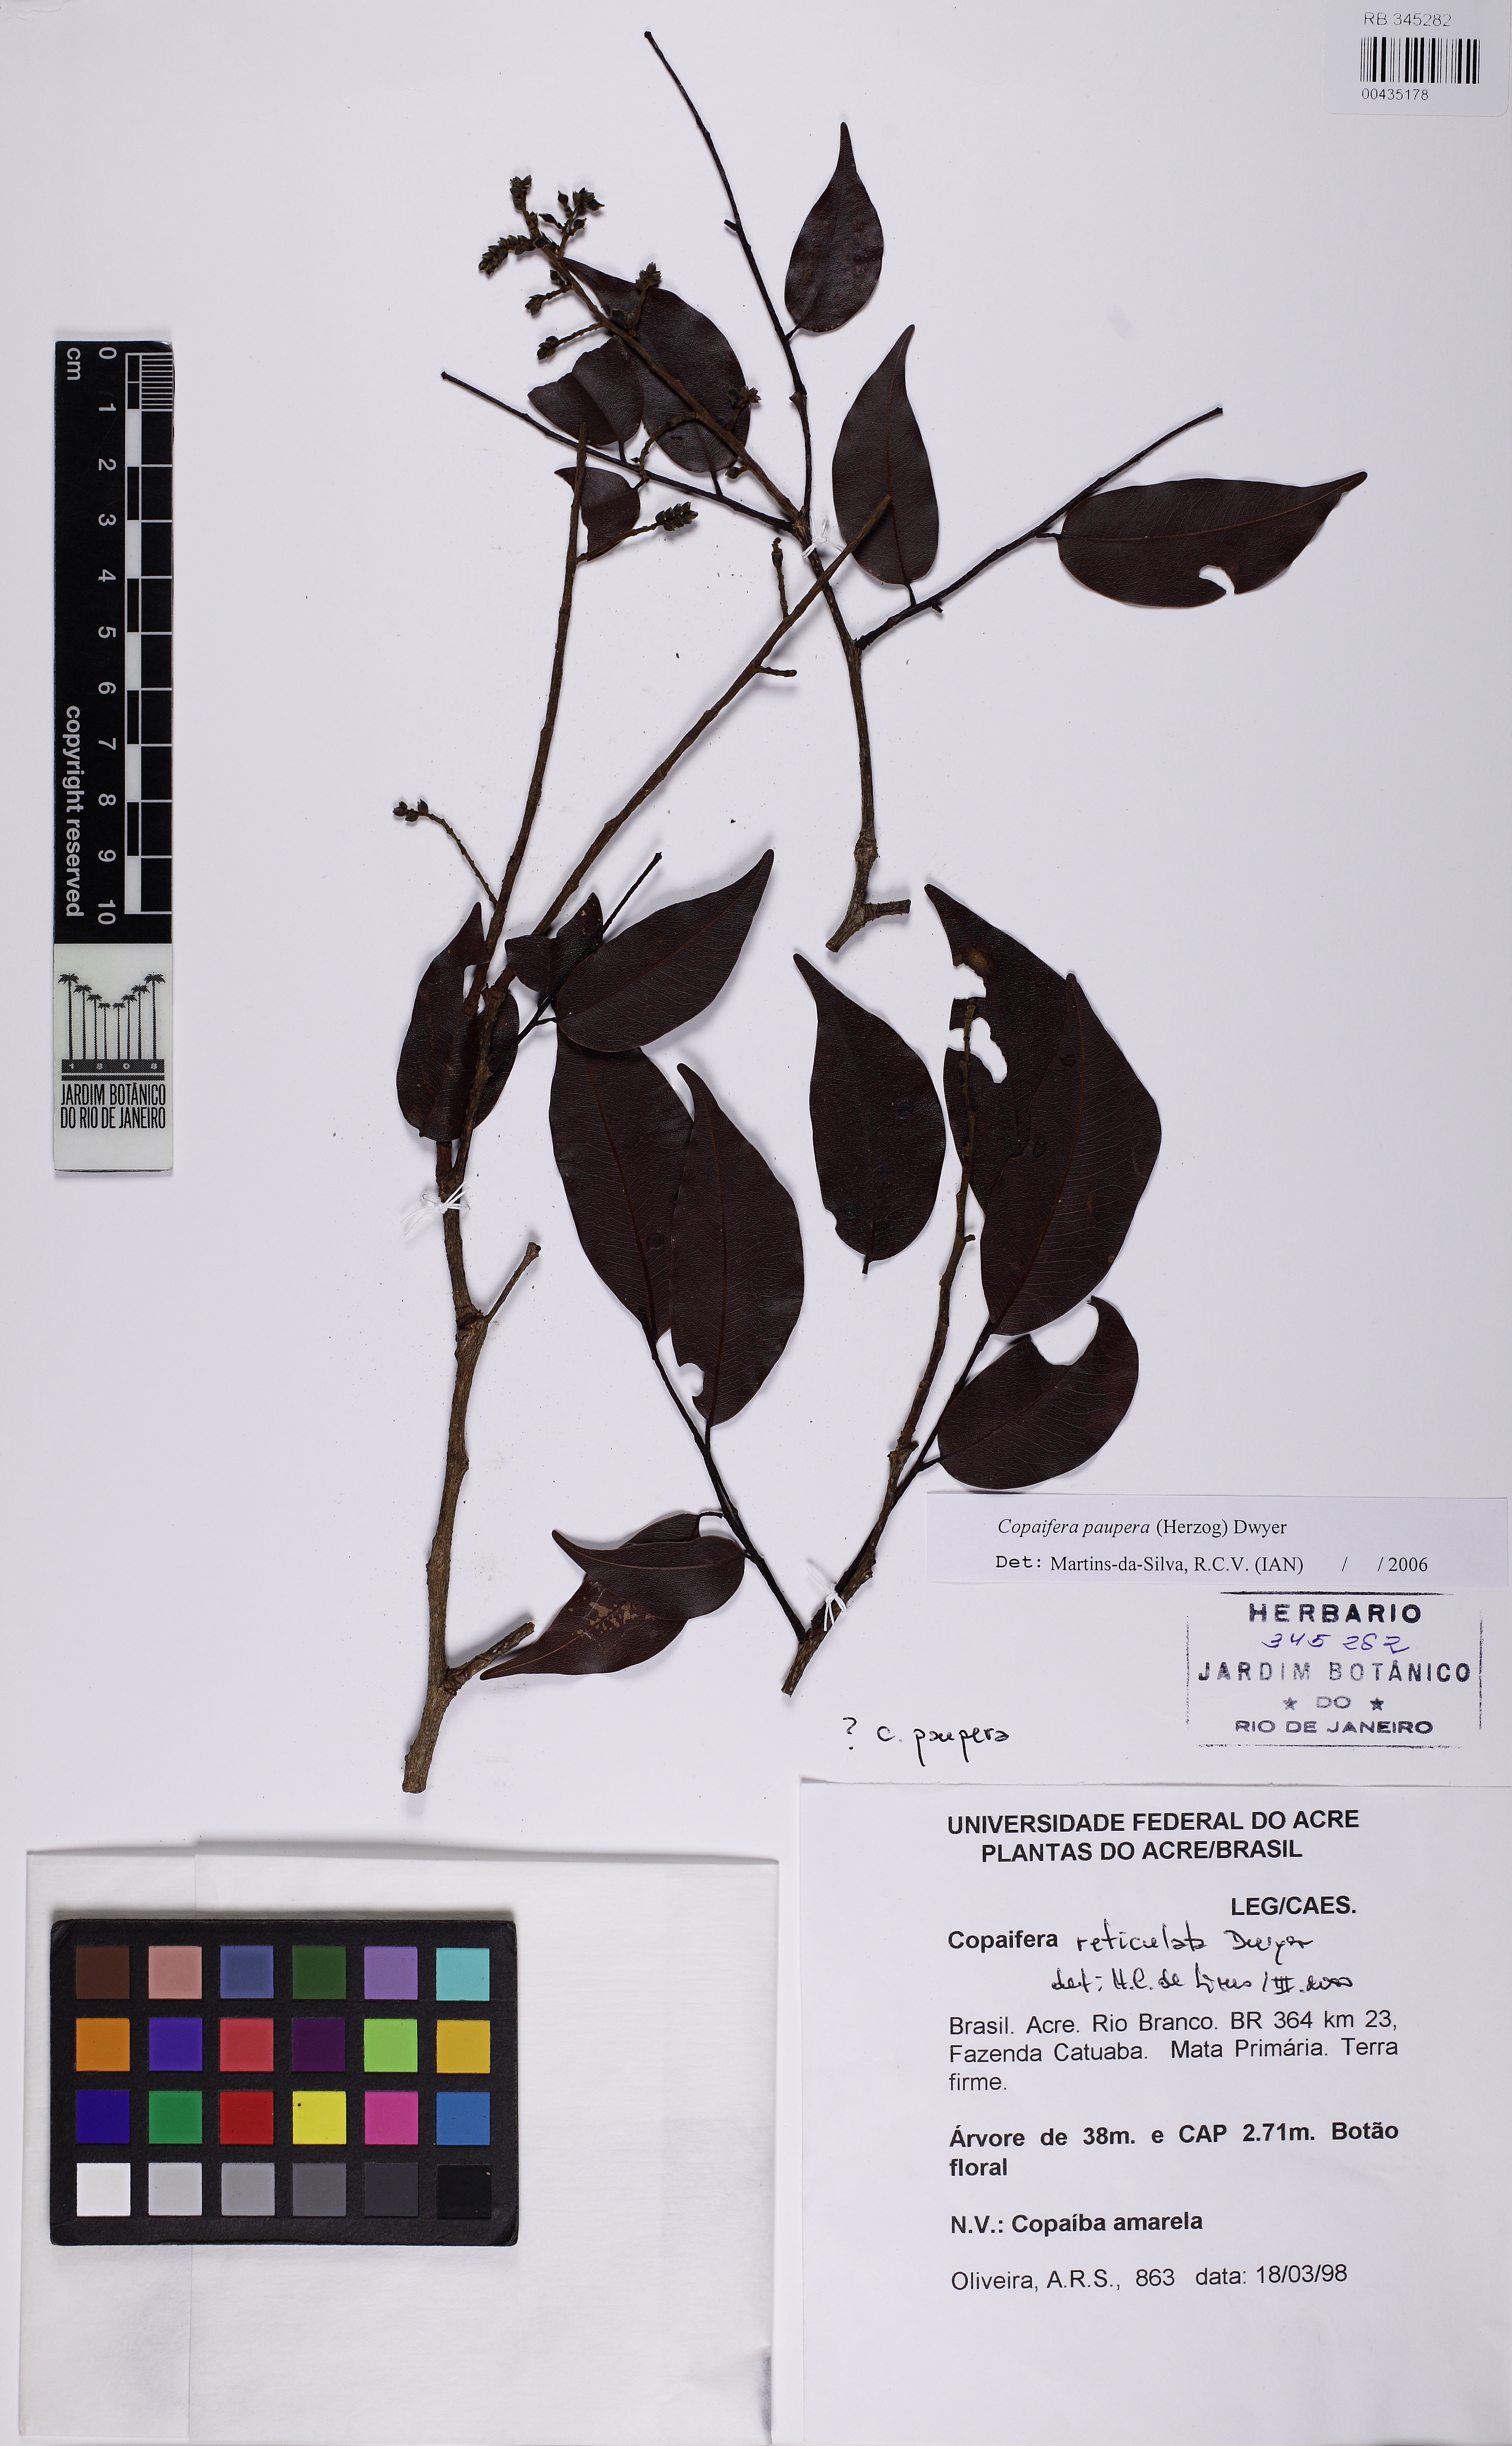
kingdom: Plantae
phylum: Tracheophyta
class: Magnoliopsida
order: Fabales
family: Fabaceae
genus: Copaifera
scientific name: Copaifera paupera
